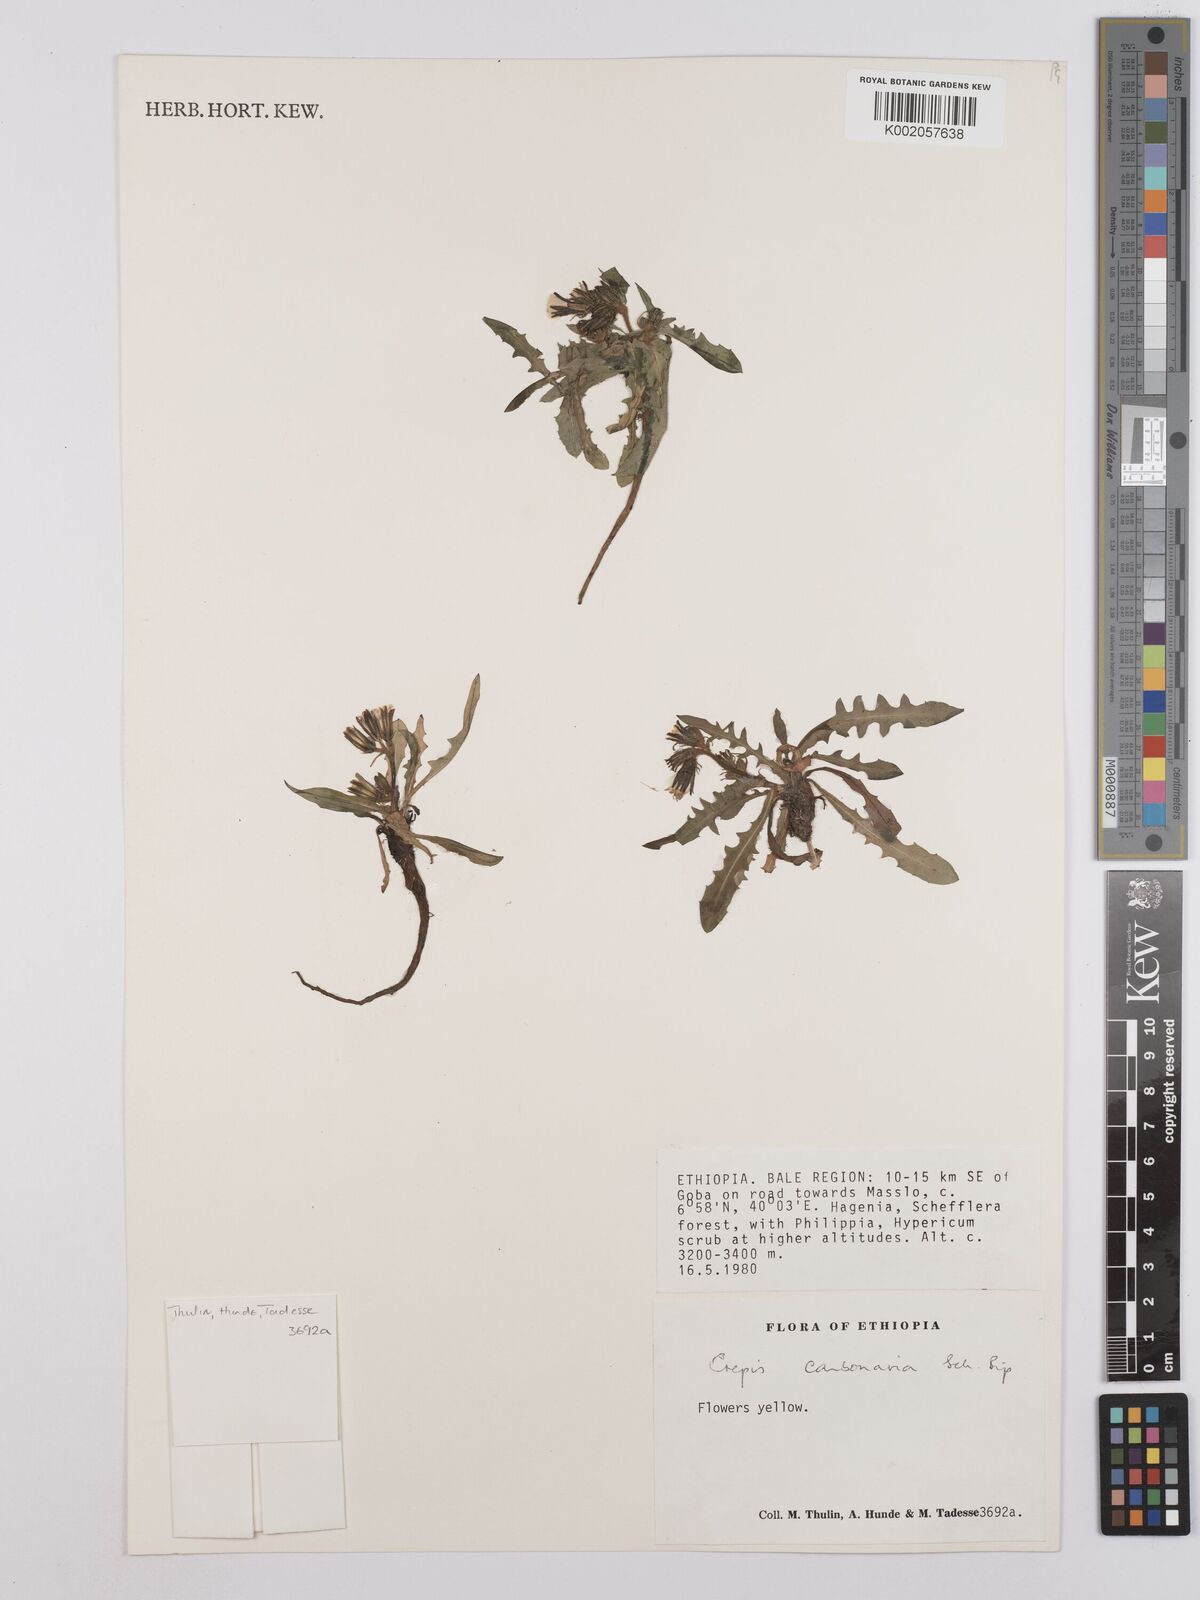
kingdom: Plantae
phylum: Tracheophyta
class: Magnoliopsida
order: Asterales
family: Asteraceae
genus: Crepis
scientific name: Crepis carbonaria
